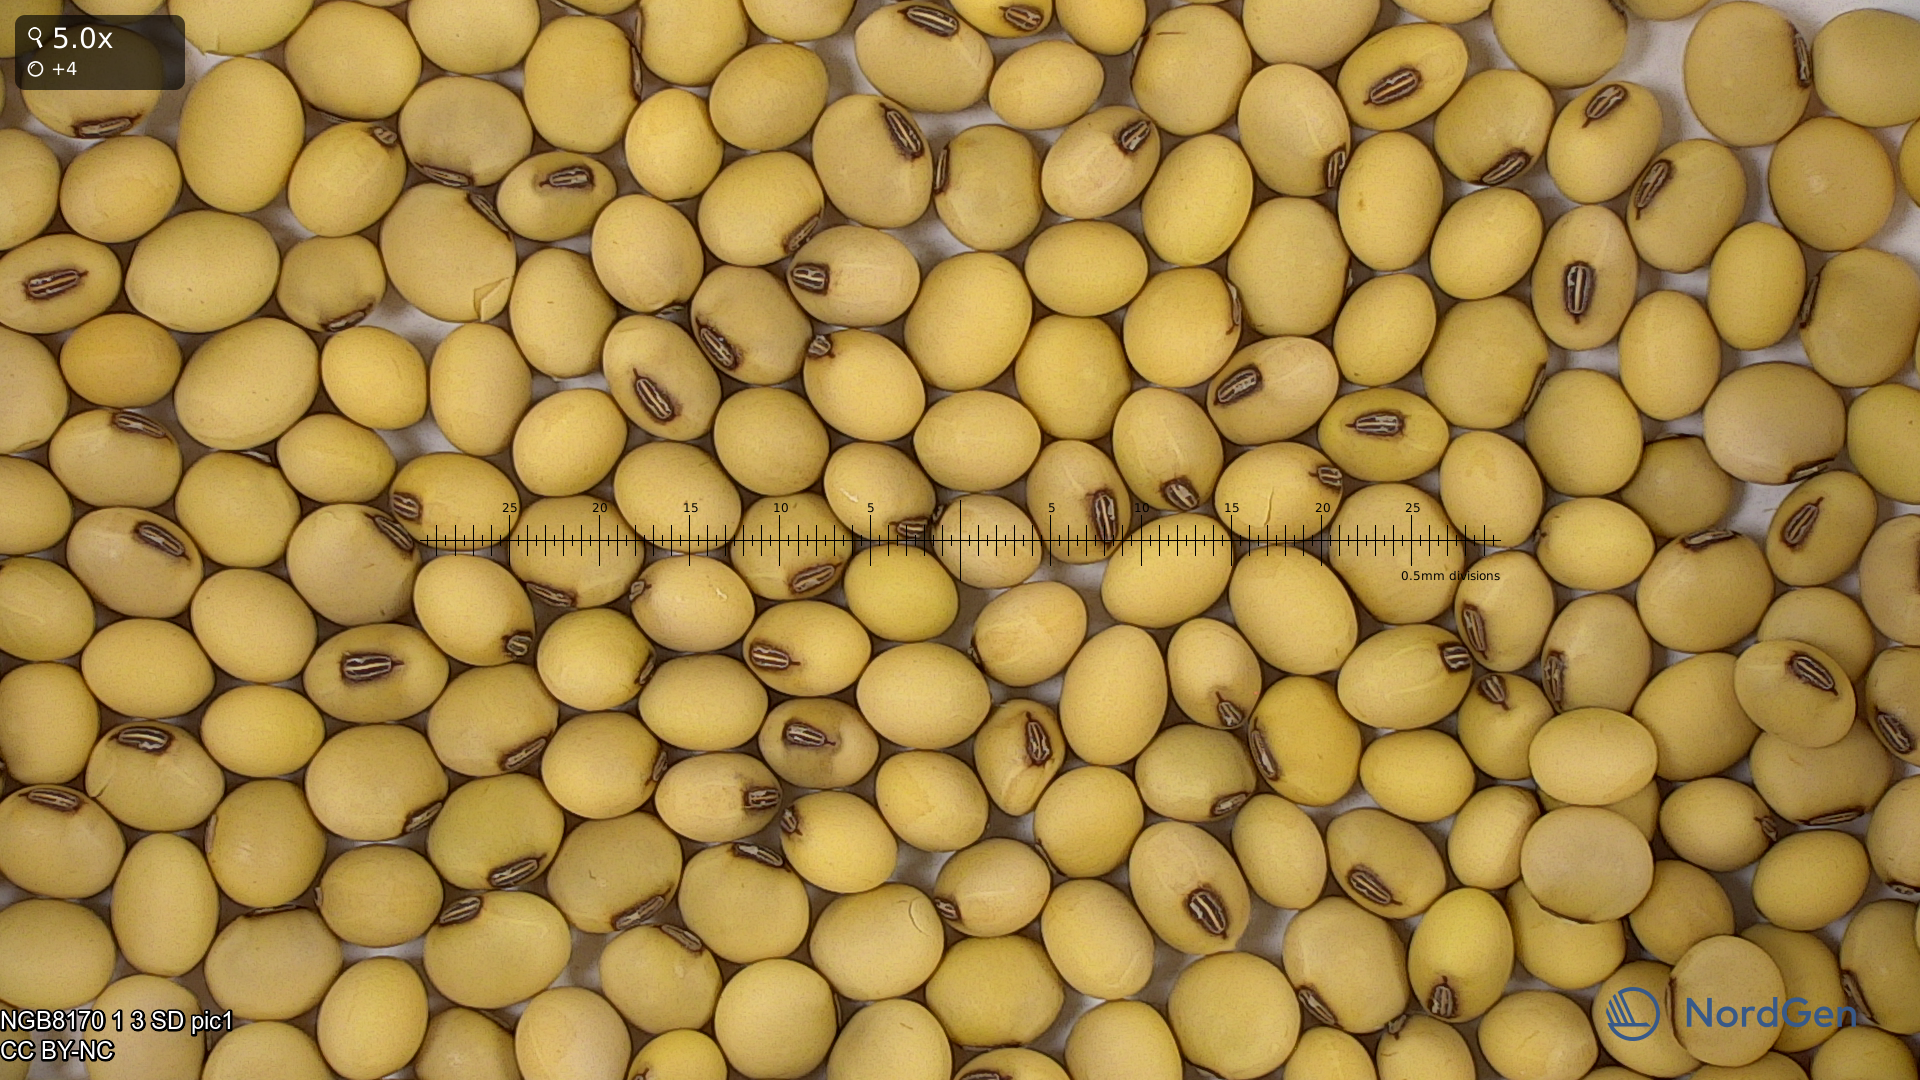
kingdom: Plantae
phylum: Tracheophyta
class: Magnoliopsida
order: Fabales
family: Fabaceae
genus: Glycine
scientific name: Glycine max
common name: Soya-bean
